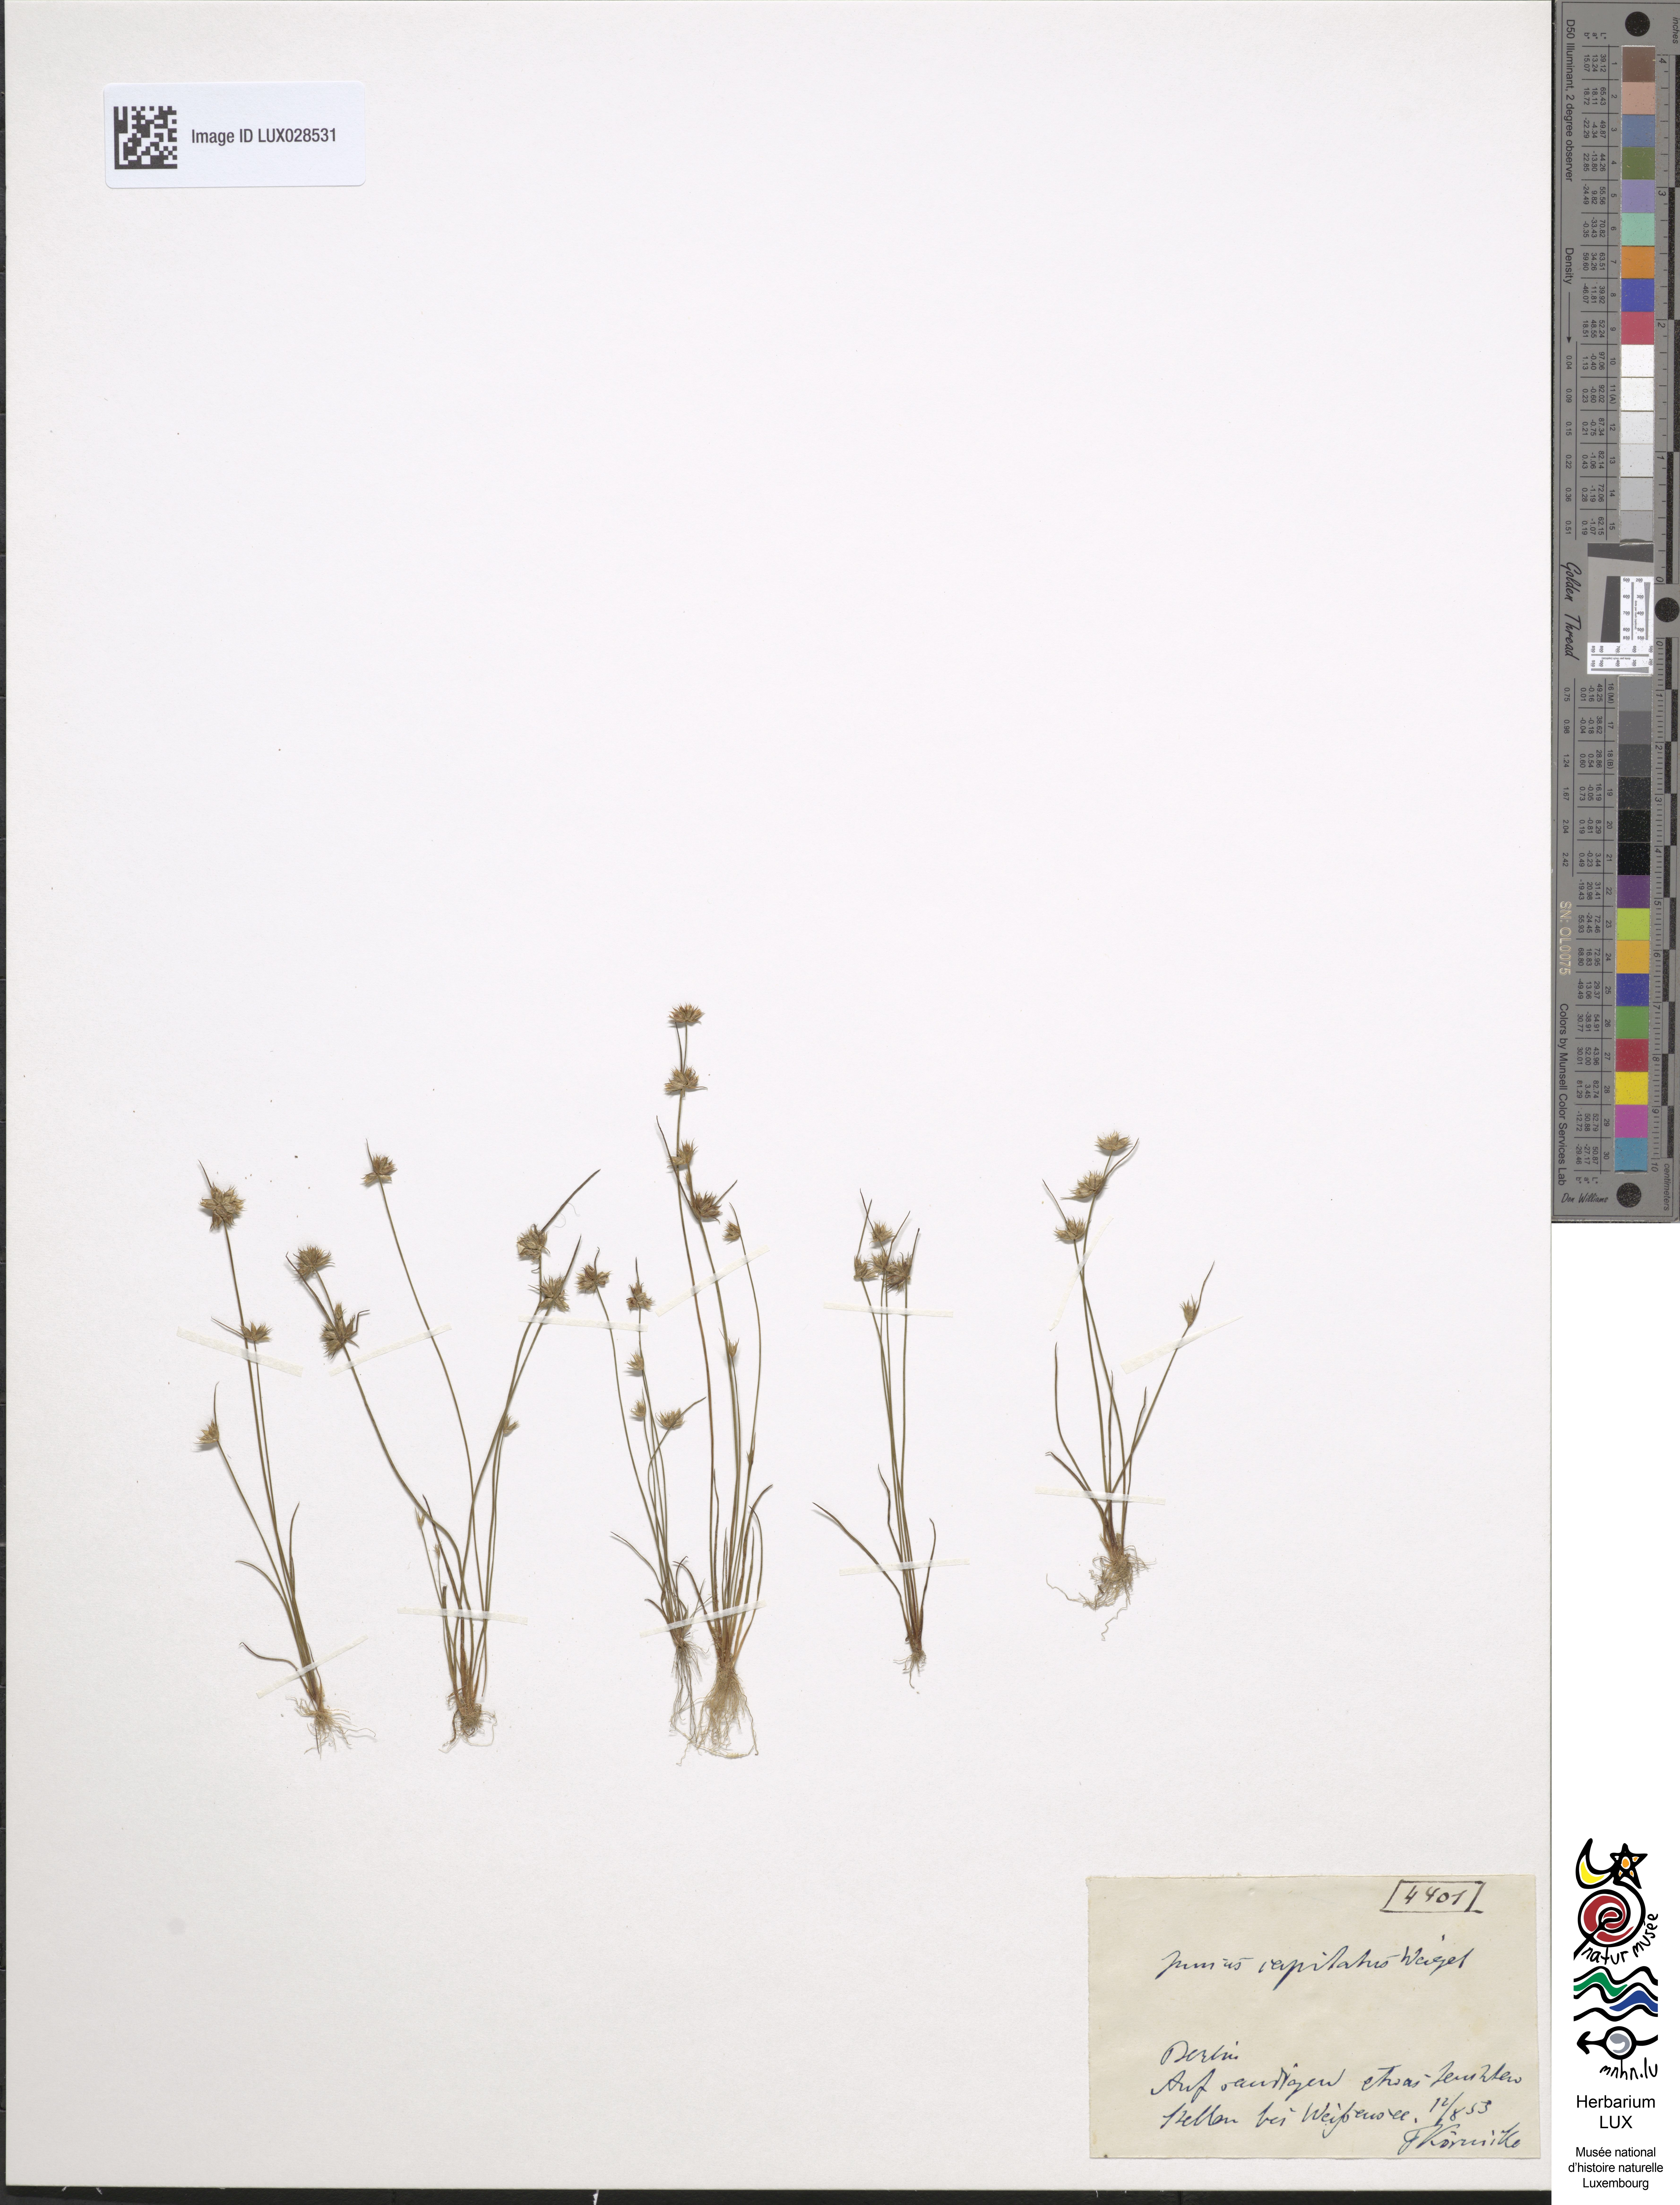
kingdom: Plantae
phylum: Tracheophyta
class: Liliopsida
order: Poales
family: Juncaceae
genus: Juncus
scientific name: Juncus capitatus
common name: Dwarf rush
